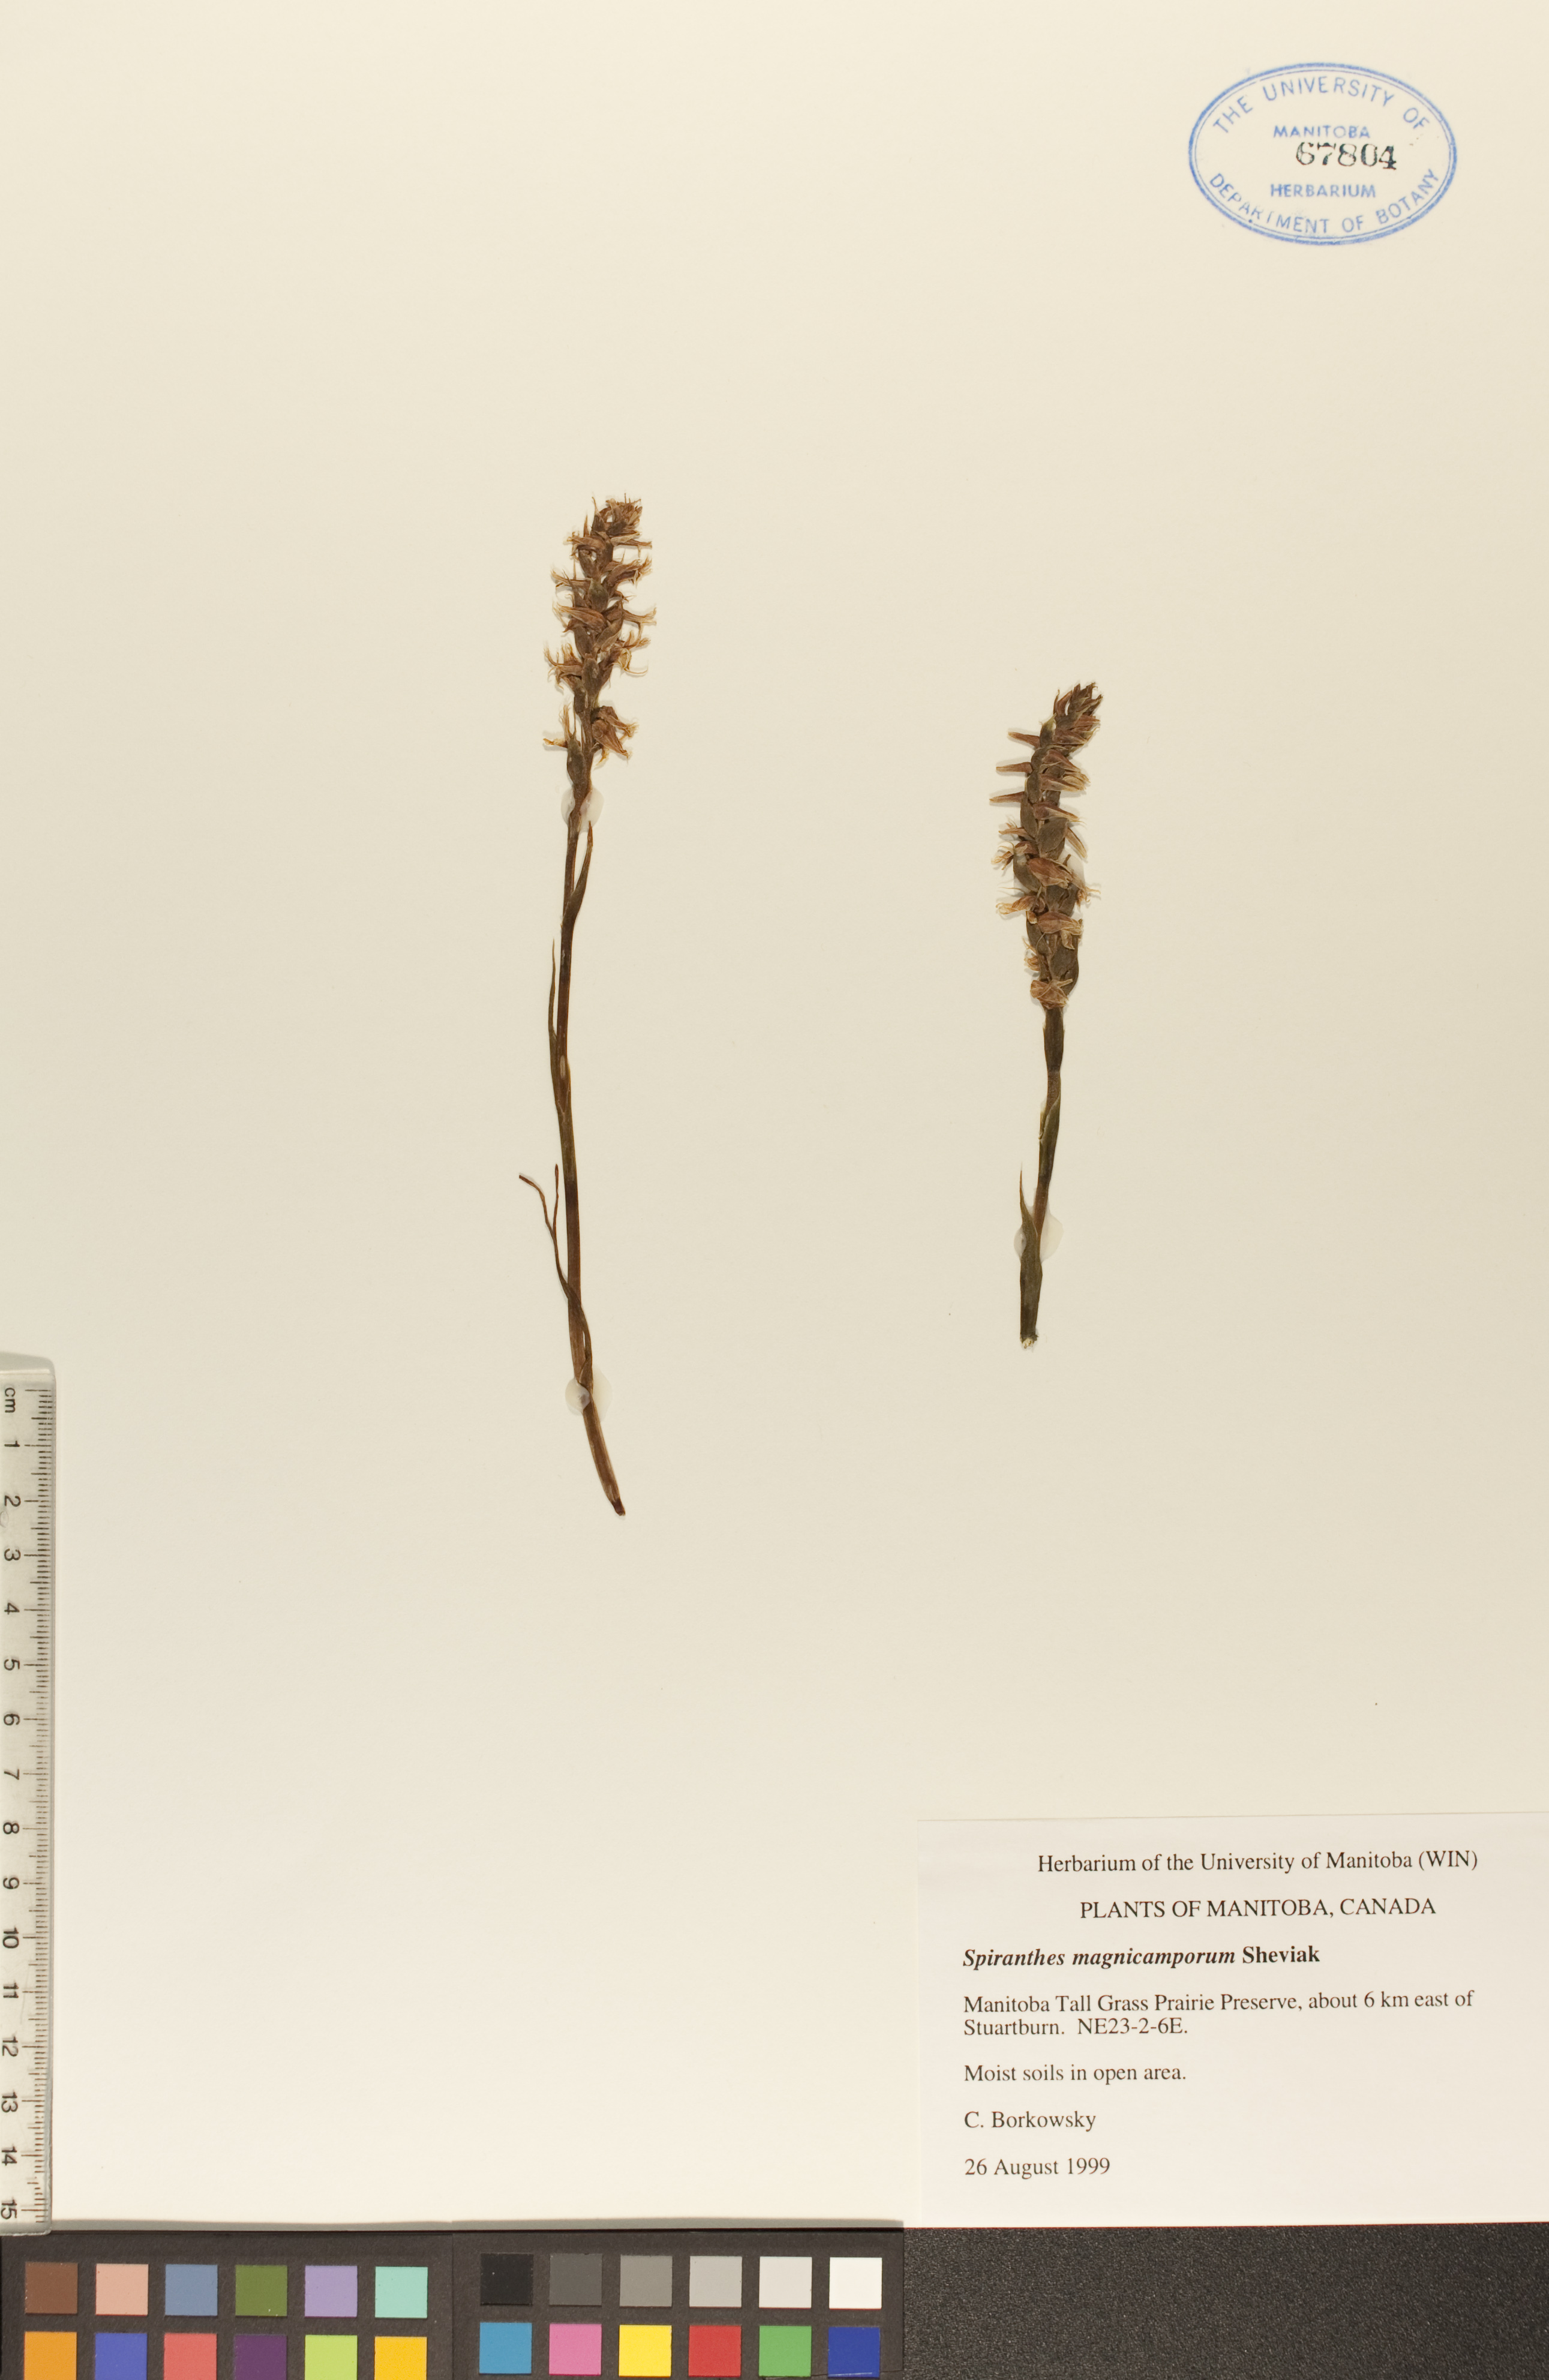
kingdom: Plantae
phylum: Tracheophyta
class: Liliopsida
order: Asparagales
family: Orchidaceae
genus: Spiranthes
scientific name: Spiranthes magnicamporum
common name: Great plains ladies'-tresses
